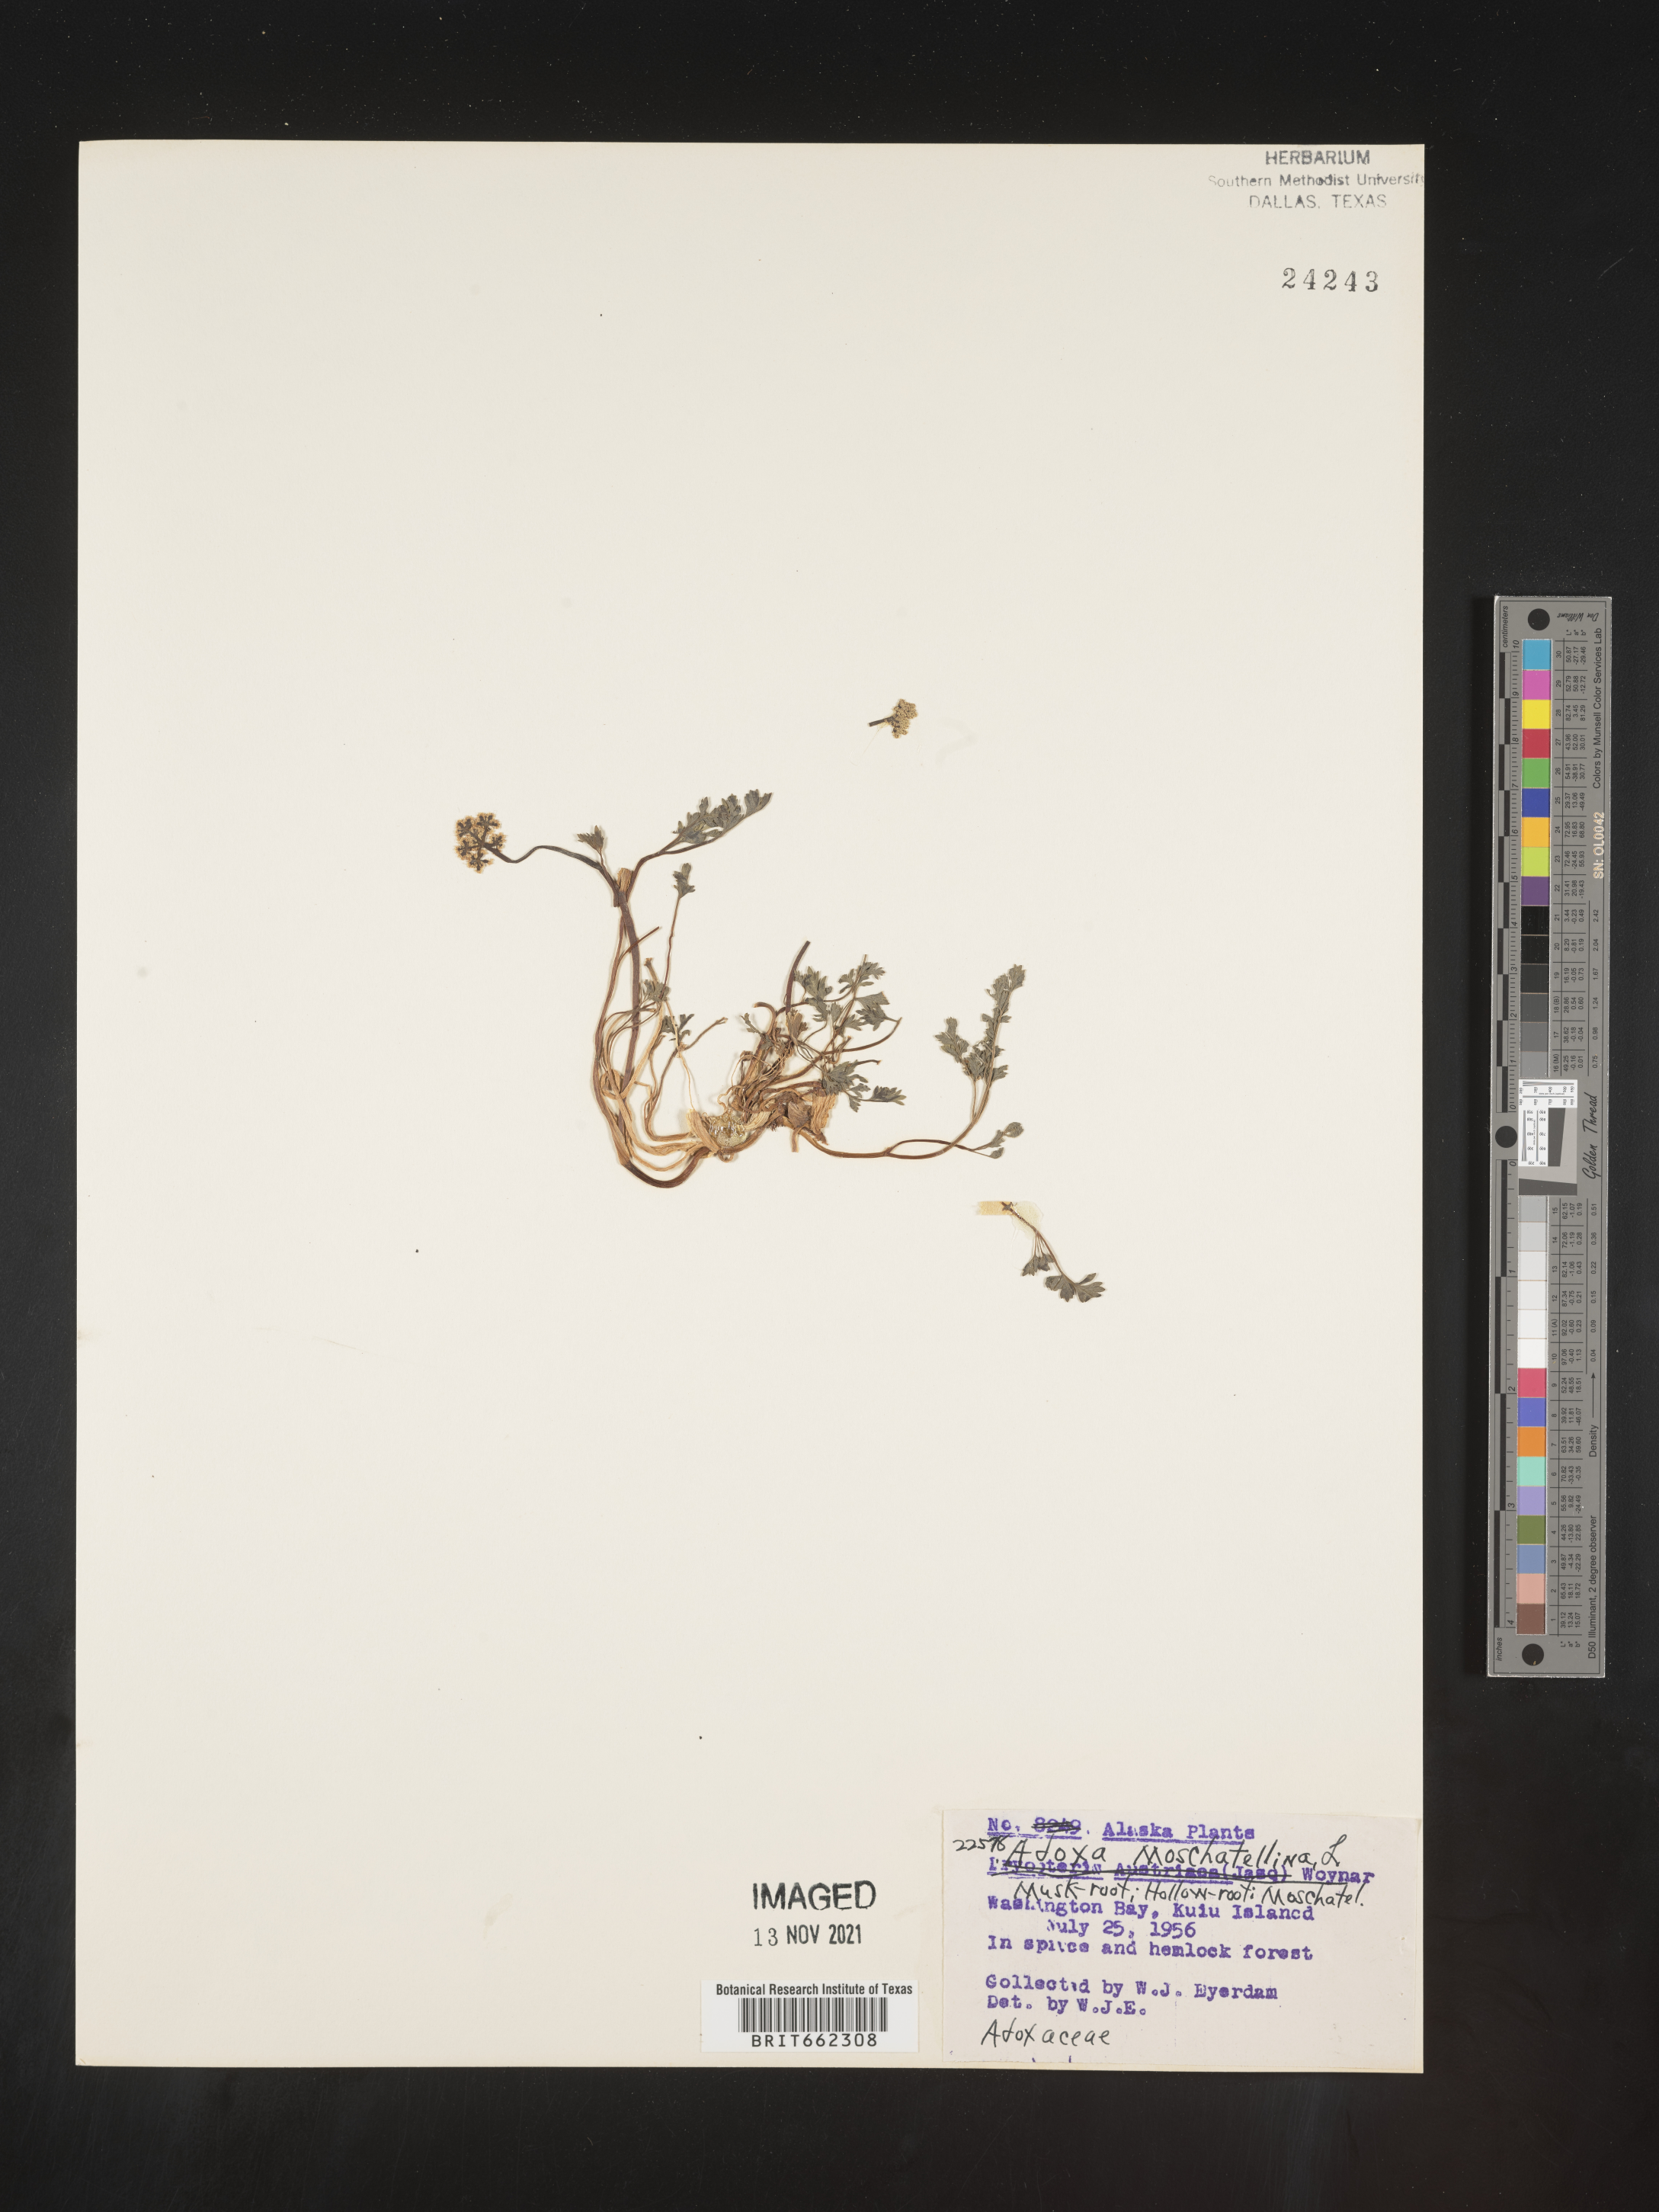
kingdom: Plantae
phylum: Tracheophyta
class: Magnoliopsida
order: Dipsacales
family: Viburnaceae
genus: Adoxa
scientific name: Adoxa
